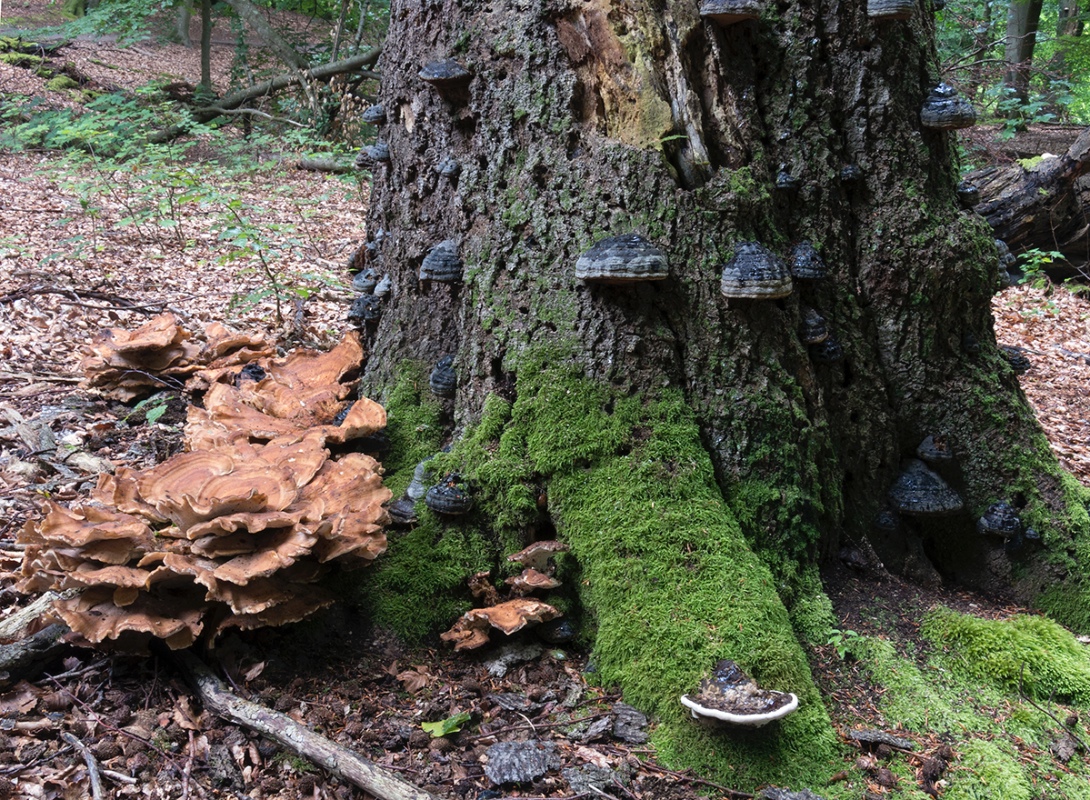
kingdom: Fungi
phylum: Basidiomycota
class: Agaricomycetes
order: Polyporales
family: Meripilaceae
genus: Meripilus
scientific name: Meripilus giganteus
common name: kæmpeporesvamp
